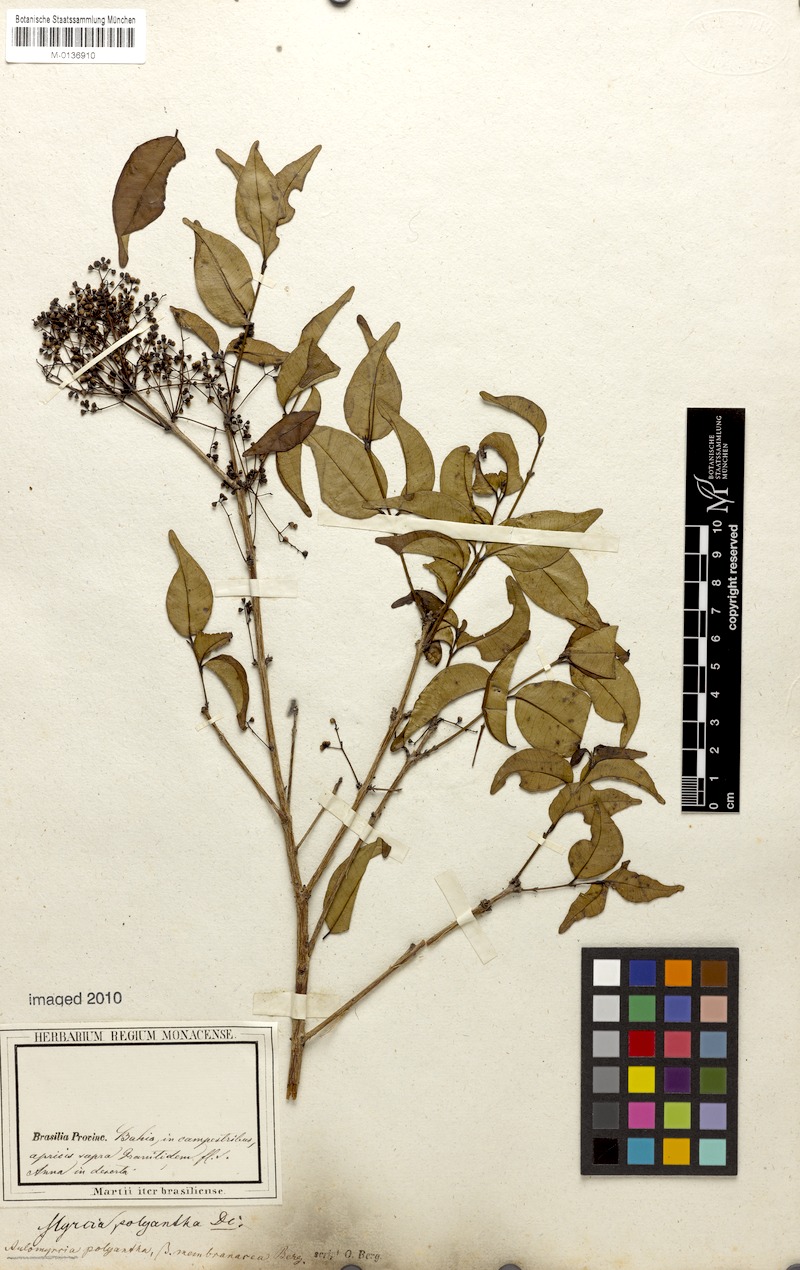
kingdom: Plantae
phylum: Tracheophyta
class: Magnoliopsida
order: Myrtales
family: Myrtaceae
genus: Myrcia
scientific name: Myrcia neopolyantha
